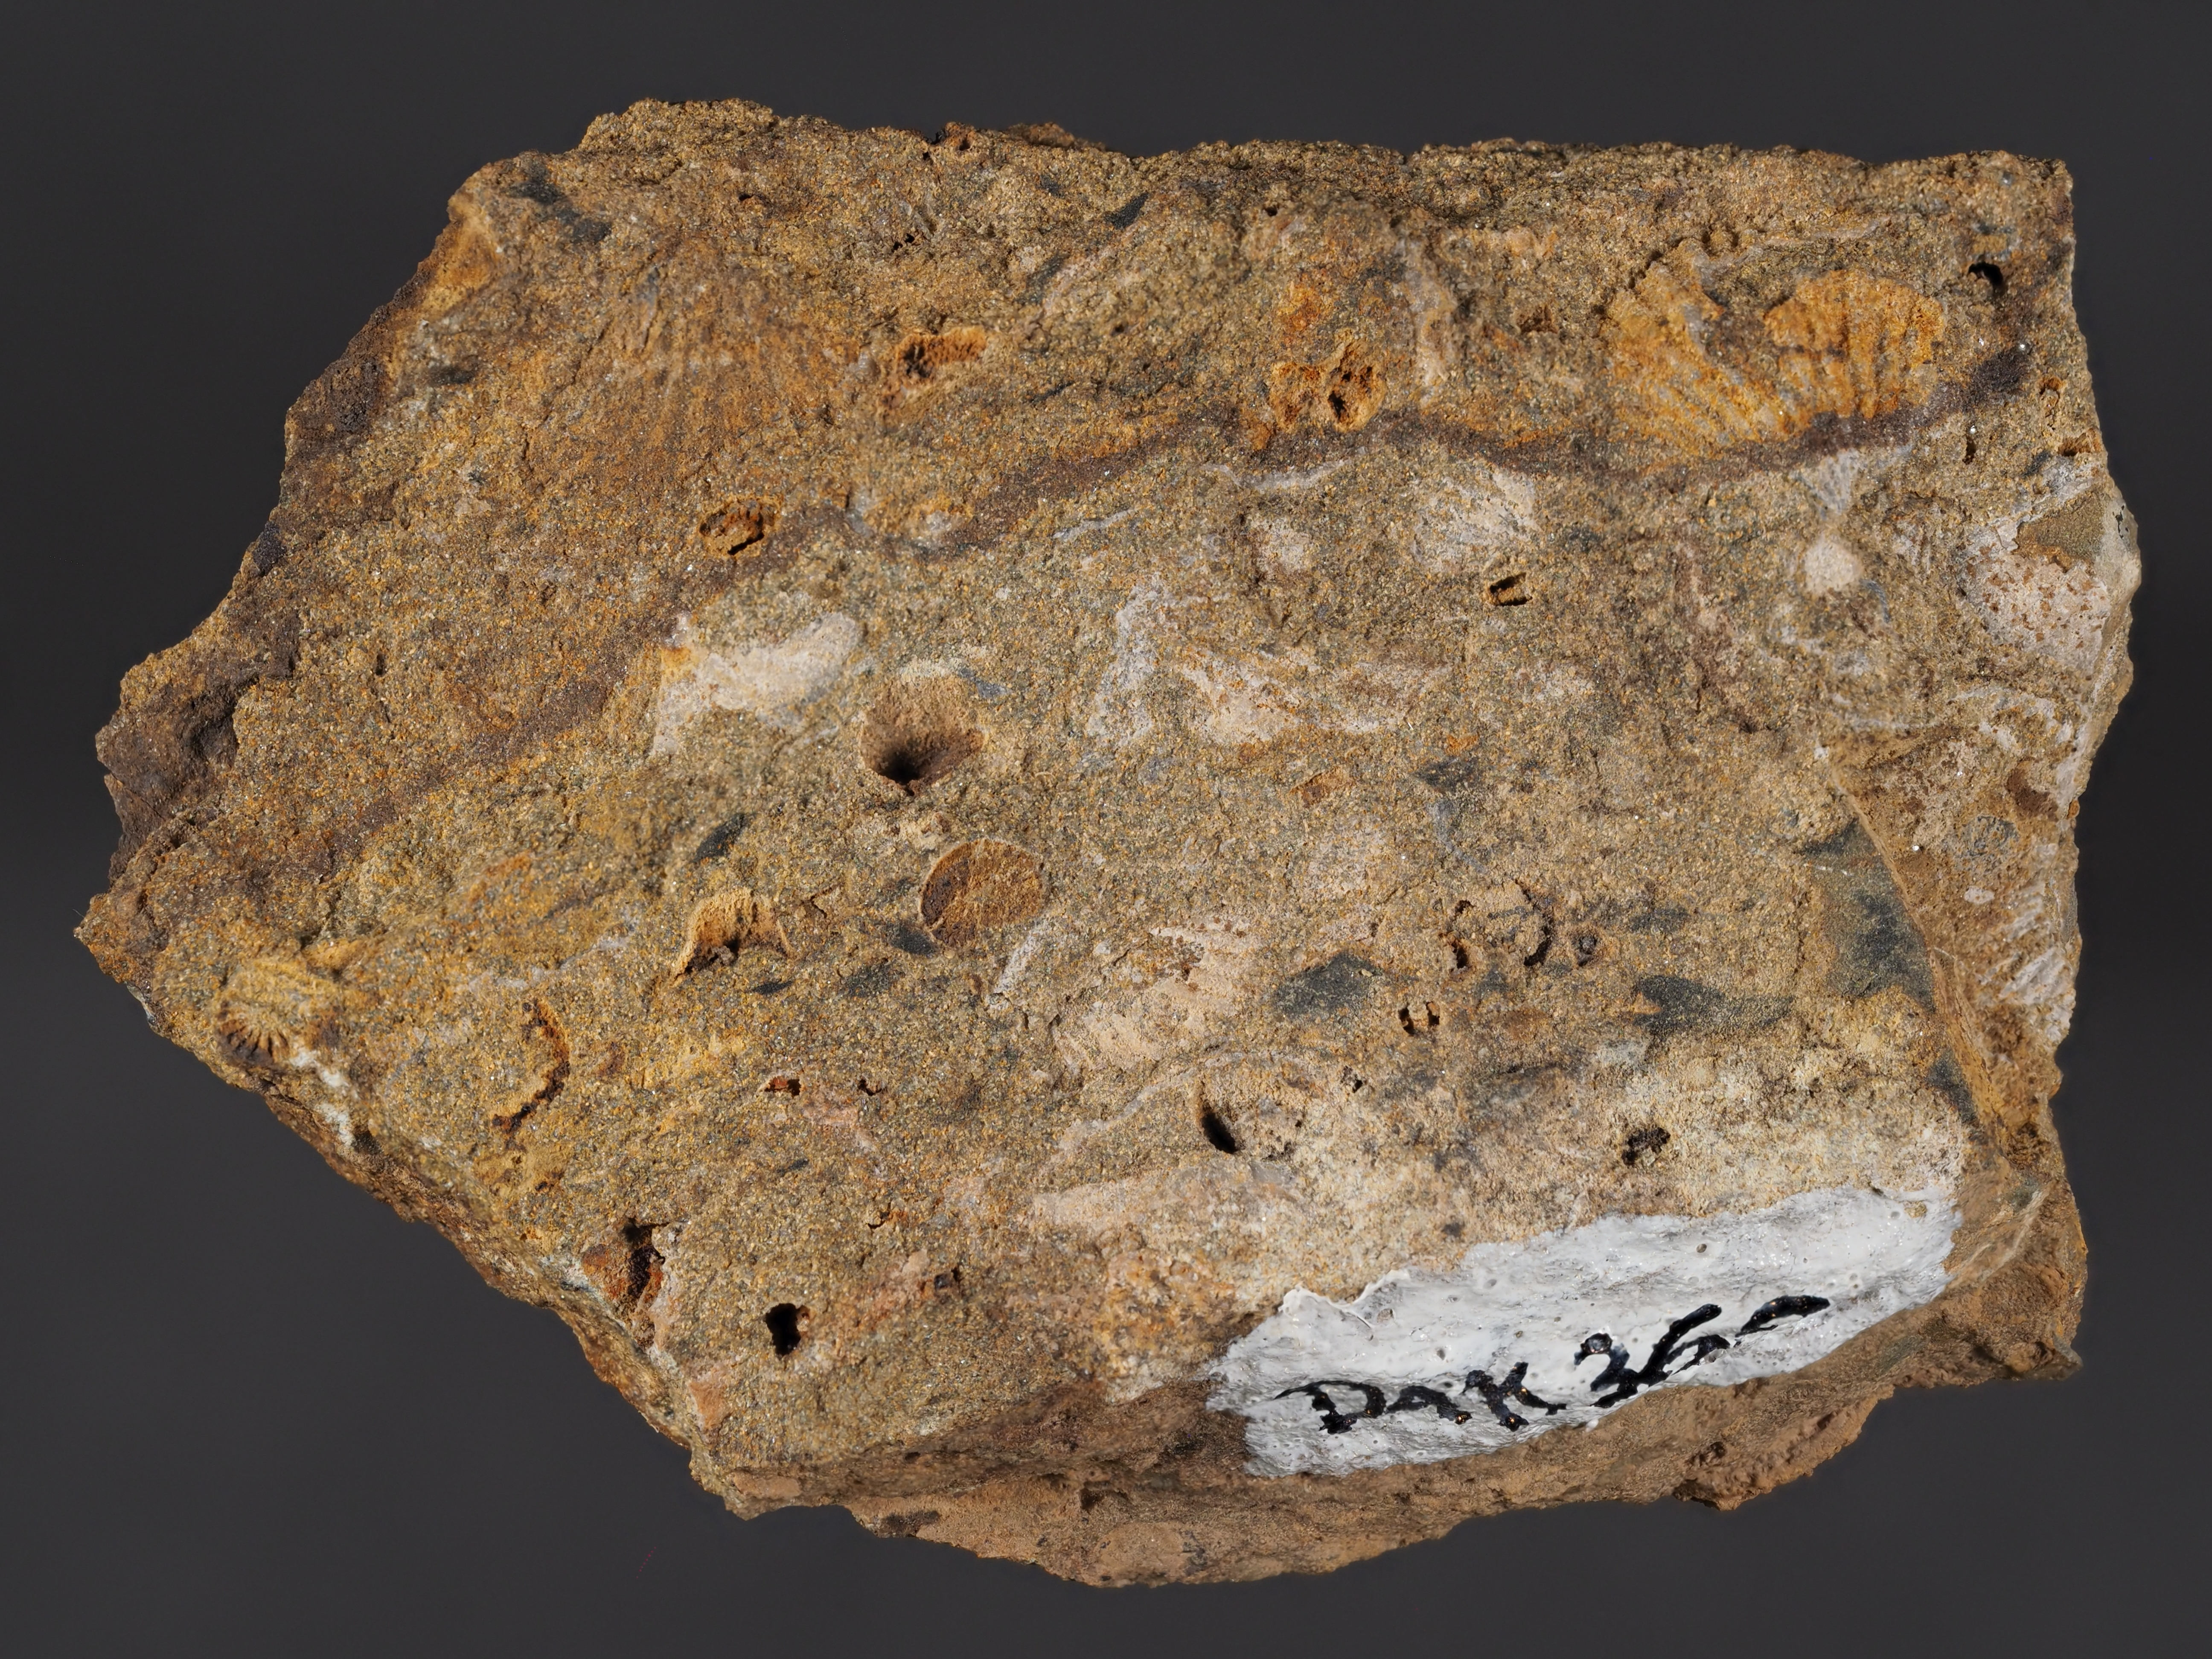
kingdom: Animalia
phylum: Brachiopoda
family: Eodevonariidae
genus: Eodevonaria
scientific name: Eodevonaria
